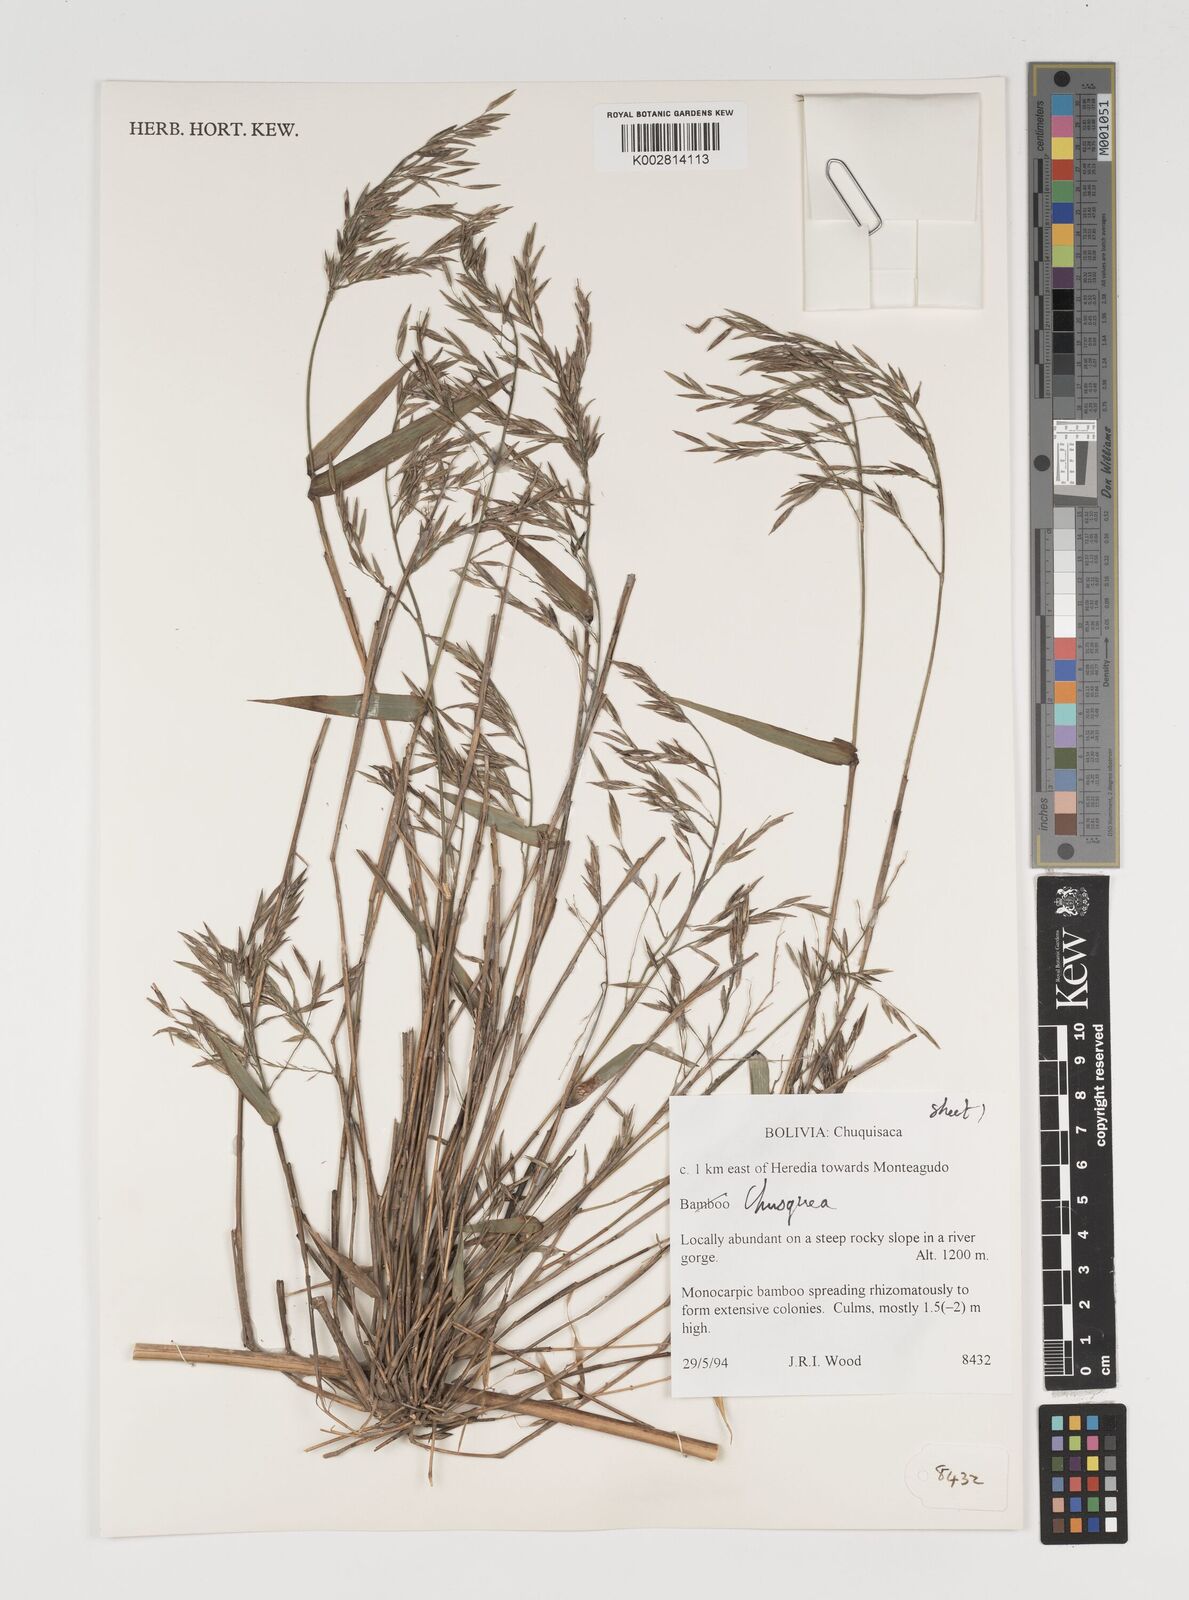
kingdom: Plantae
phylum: Tracheophyta
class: Liliopsida
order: Poales
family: Poaceae
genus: Chusquea
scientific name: Chusquea
